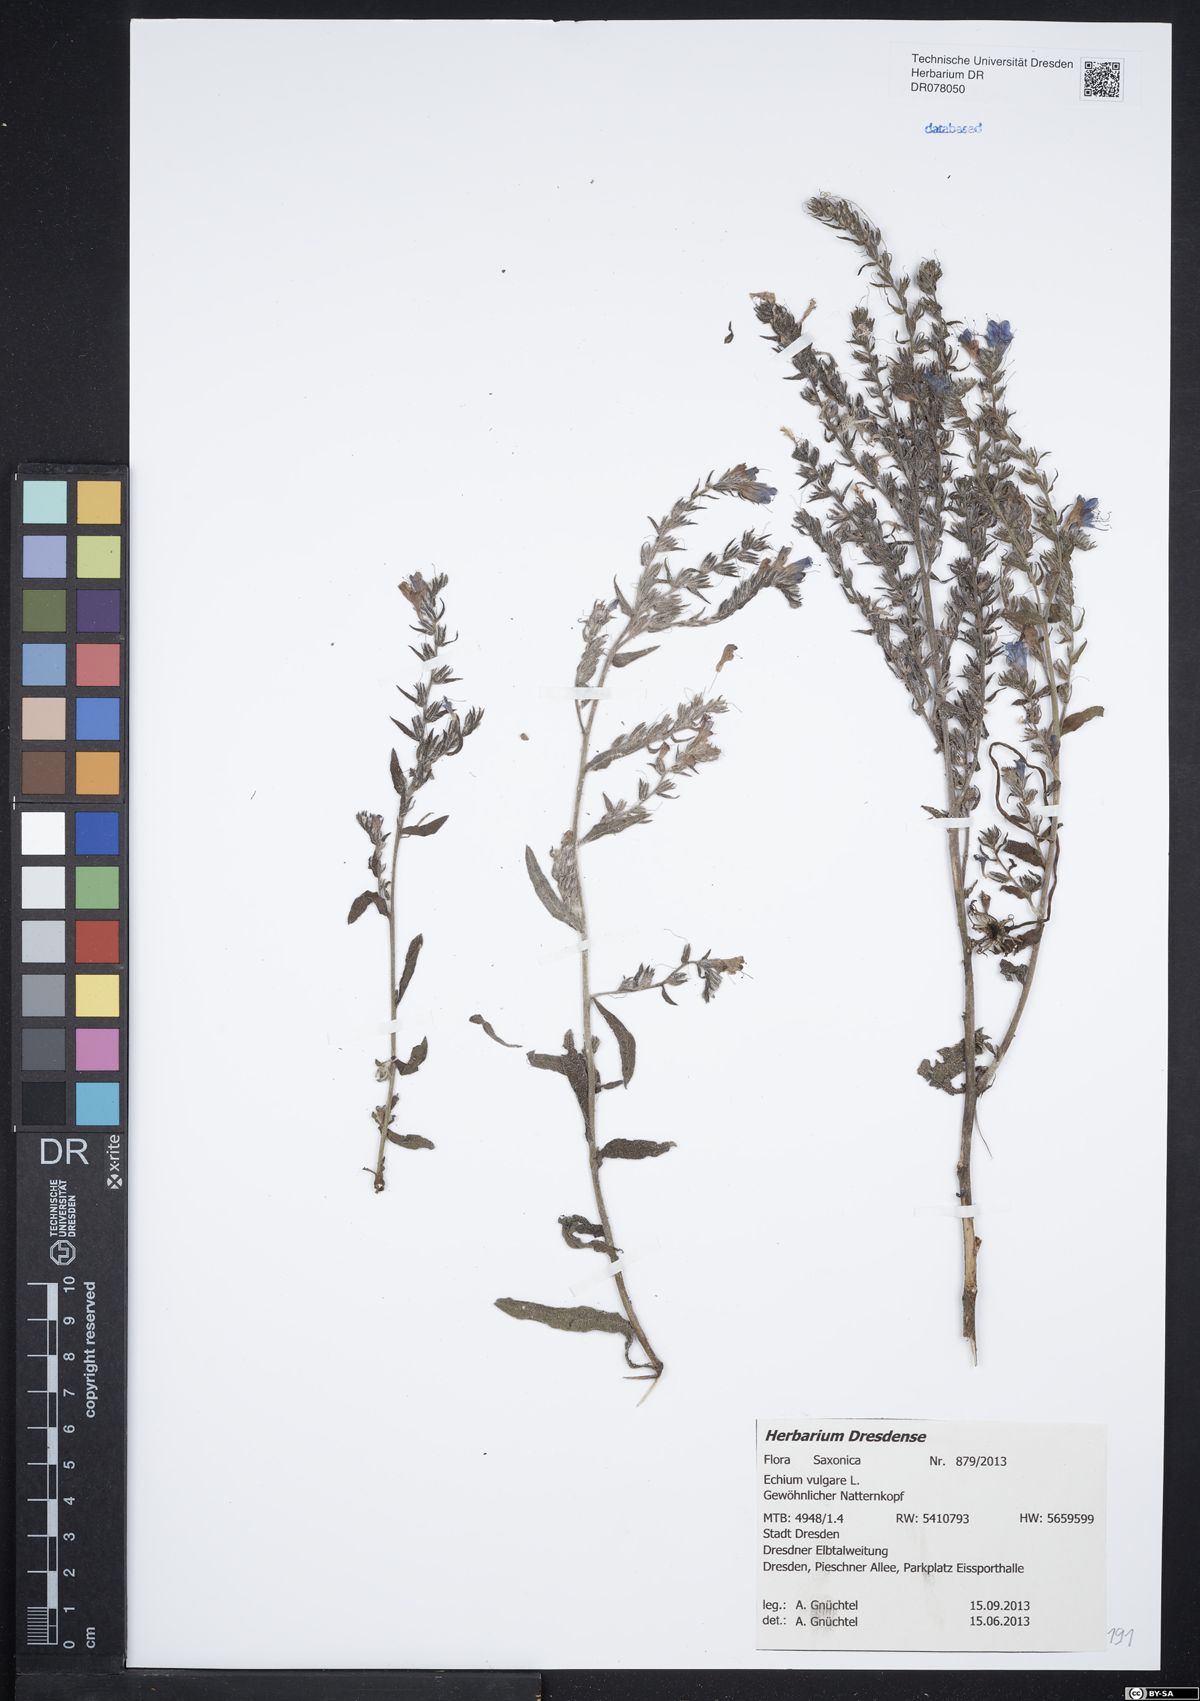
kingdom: Plantae
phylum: Tracheophyta
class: Magnoliopsida
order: Boraginales
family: Boraginaceae
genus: Echium
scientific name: Echium vulgare
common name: Common viper's bugloss
